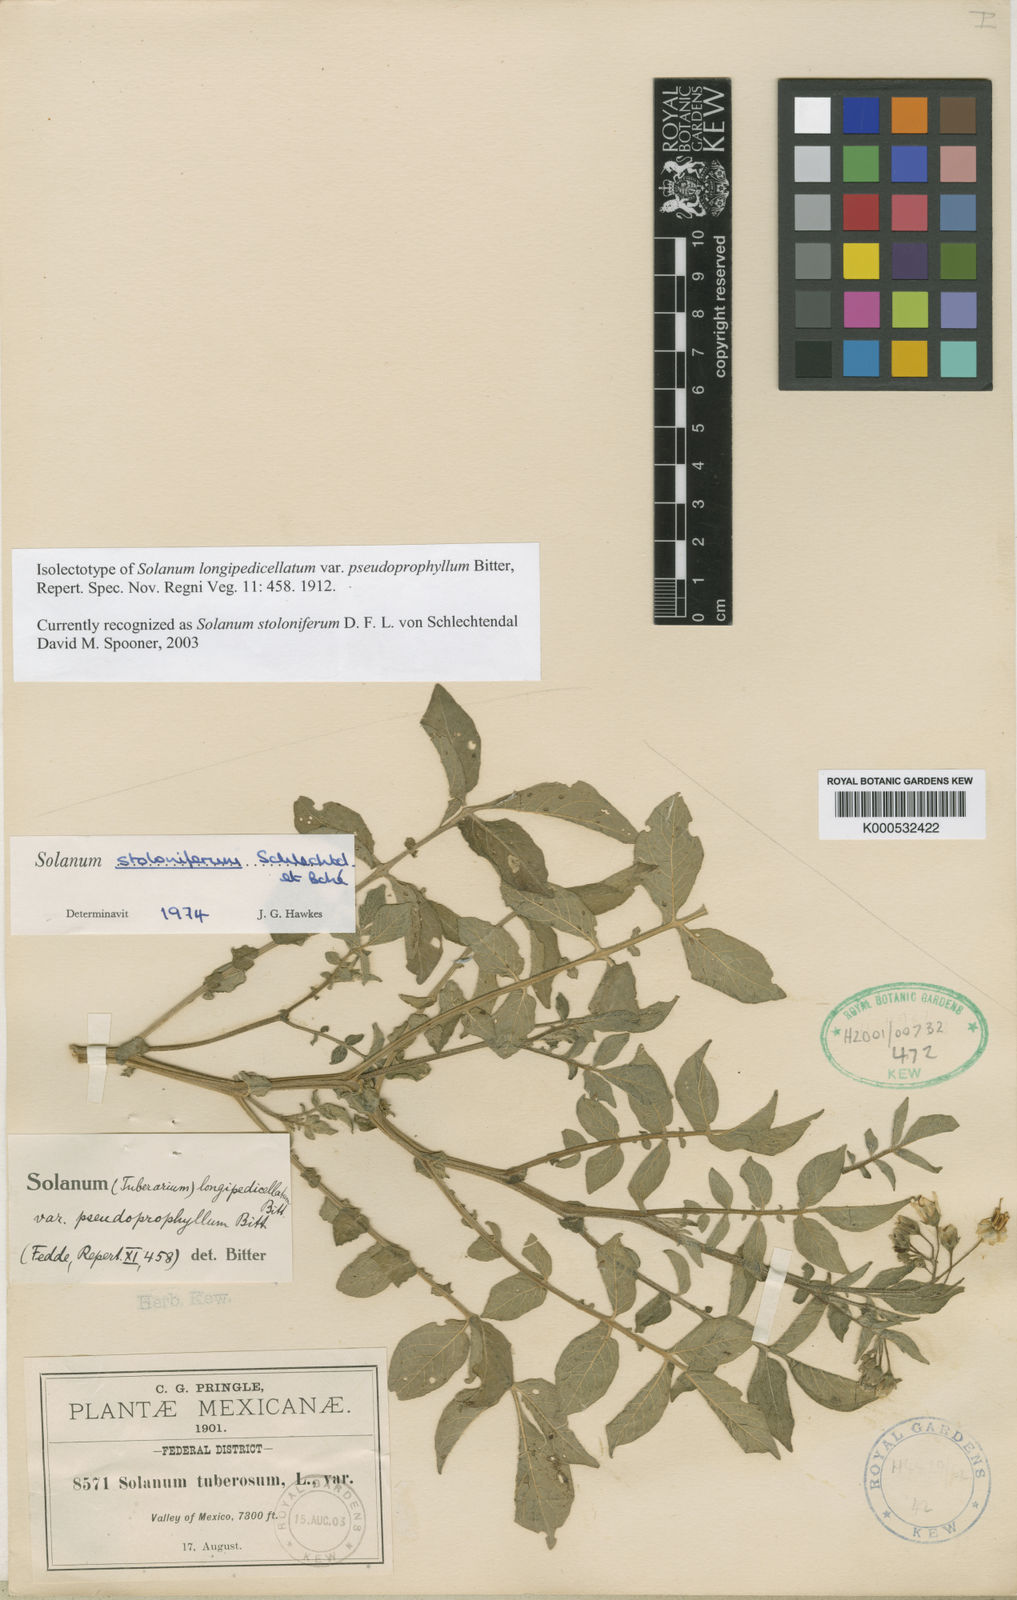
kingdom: Plantae
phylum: Tracheophyta
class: Magnoliopsida
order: Solanales
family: Solanaceae
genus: Solanum
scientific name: Solanum stoloniferum
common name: Fendler's nighshade
